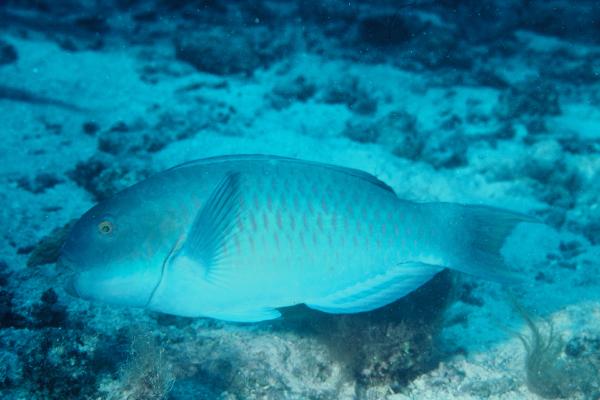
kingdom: Animalia
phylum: Chordata
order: Perciformes
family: Scaridae
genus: Chlorurus
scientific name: Chlorurus microrhinos
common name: Steephead parrotfish
